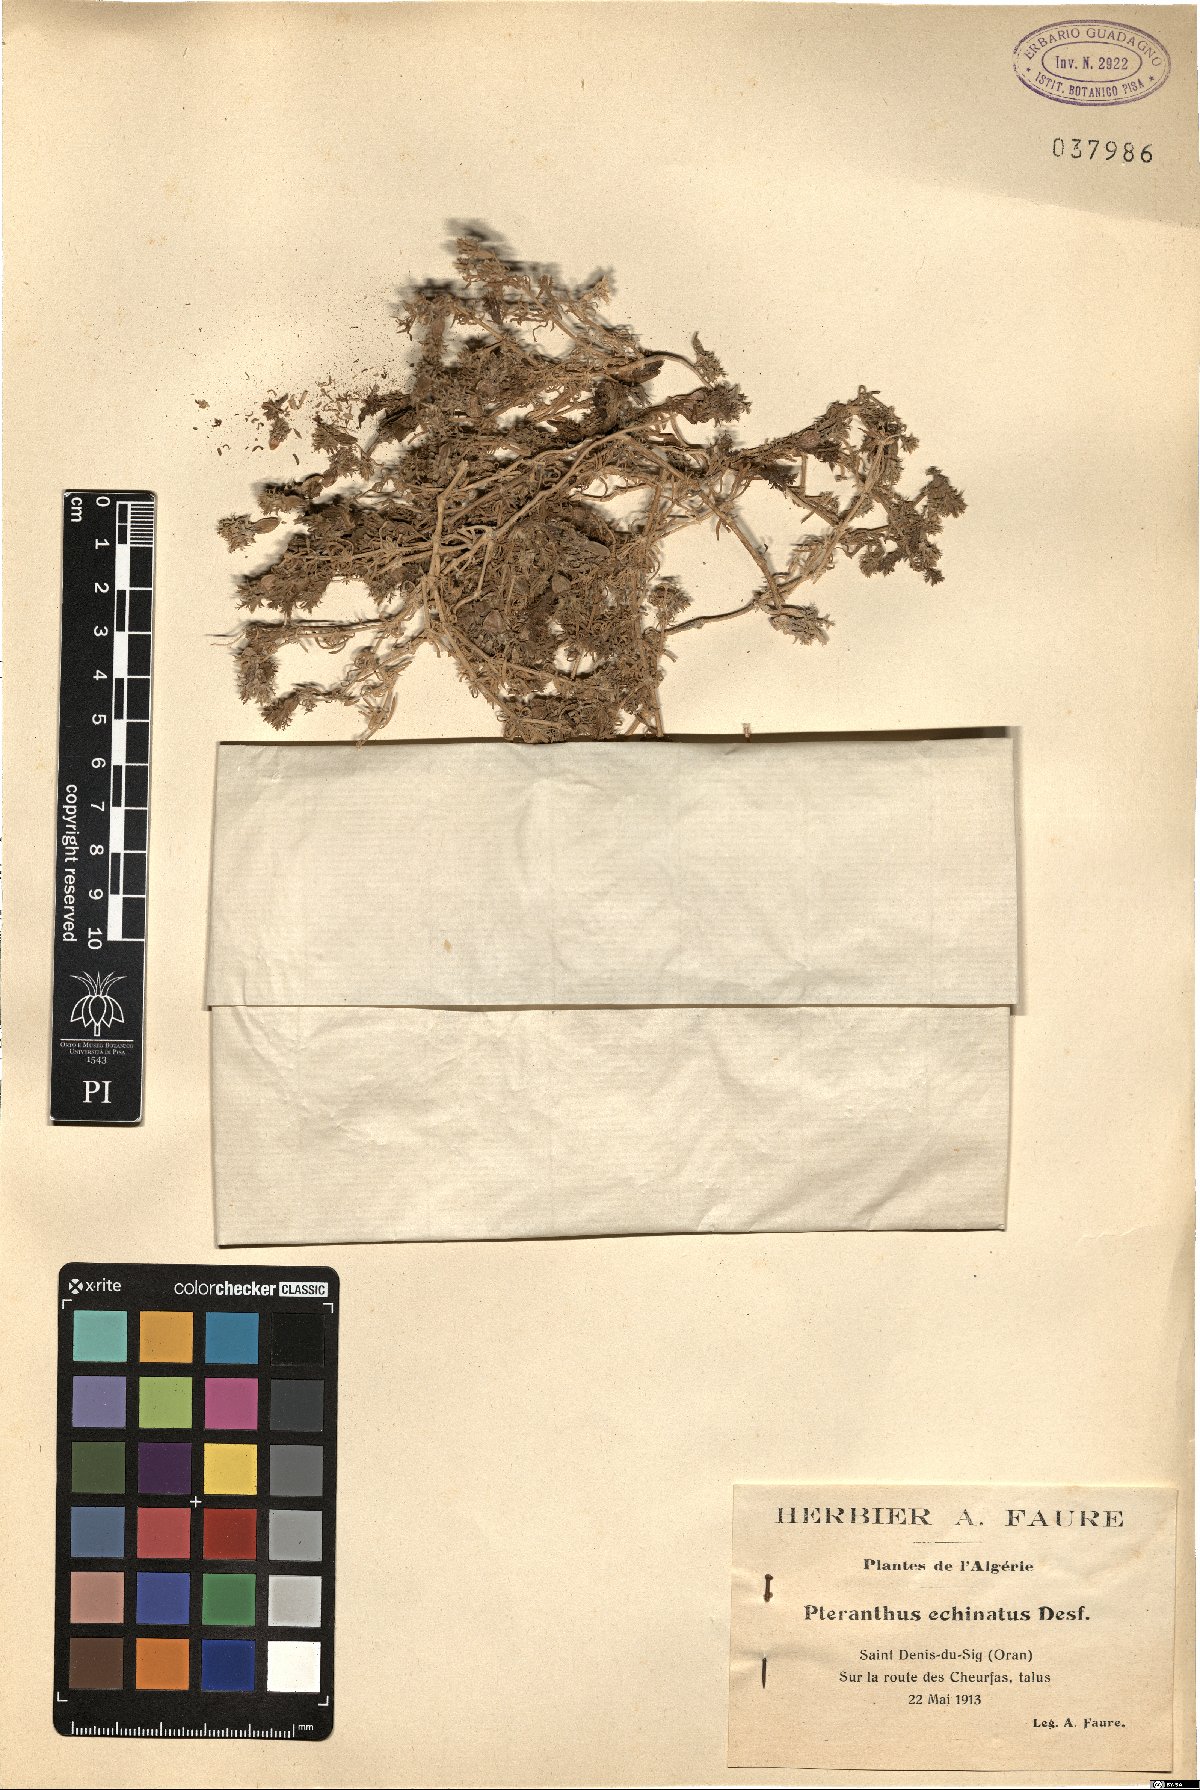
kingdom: Plantae
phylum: Tracheophyta
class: Magnoliopsida
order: Caryophyllales
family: Caryophyllaceae
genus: Pteranthus
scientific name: Pteranthus dichotomus
